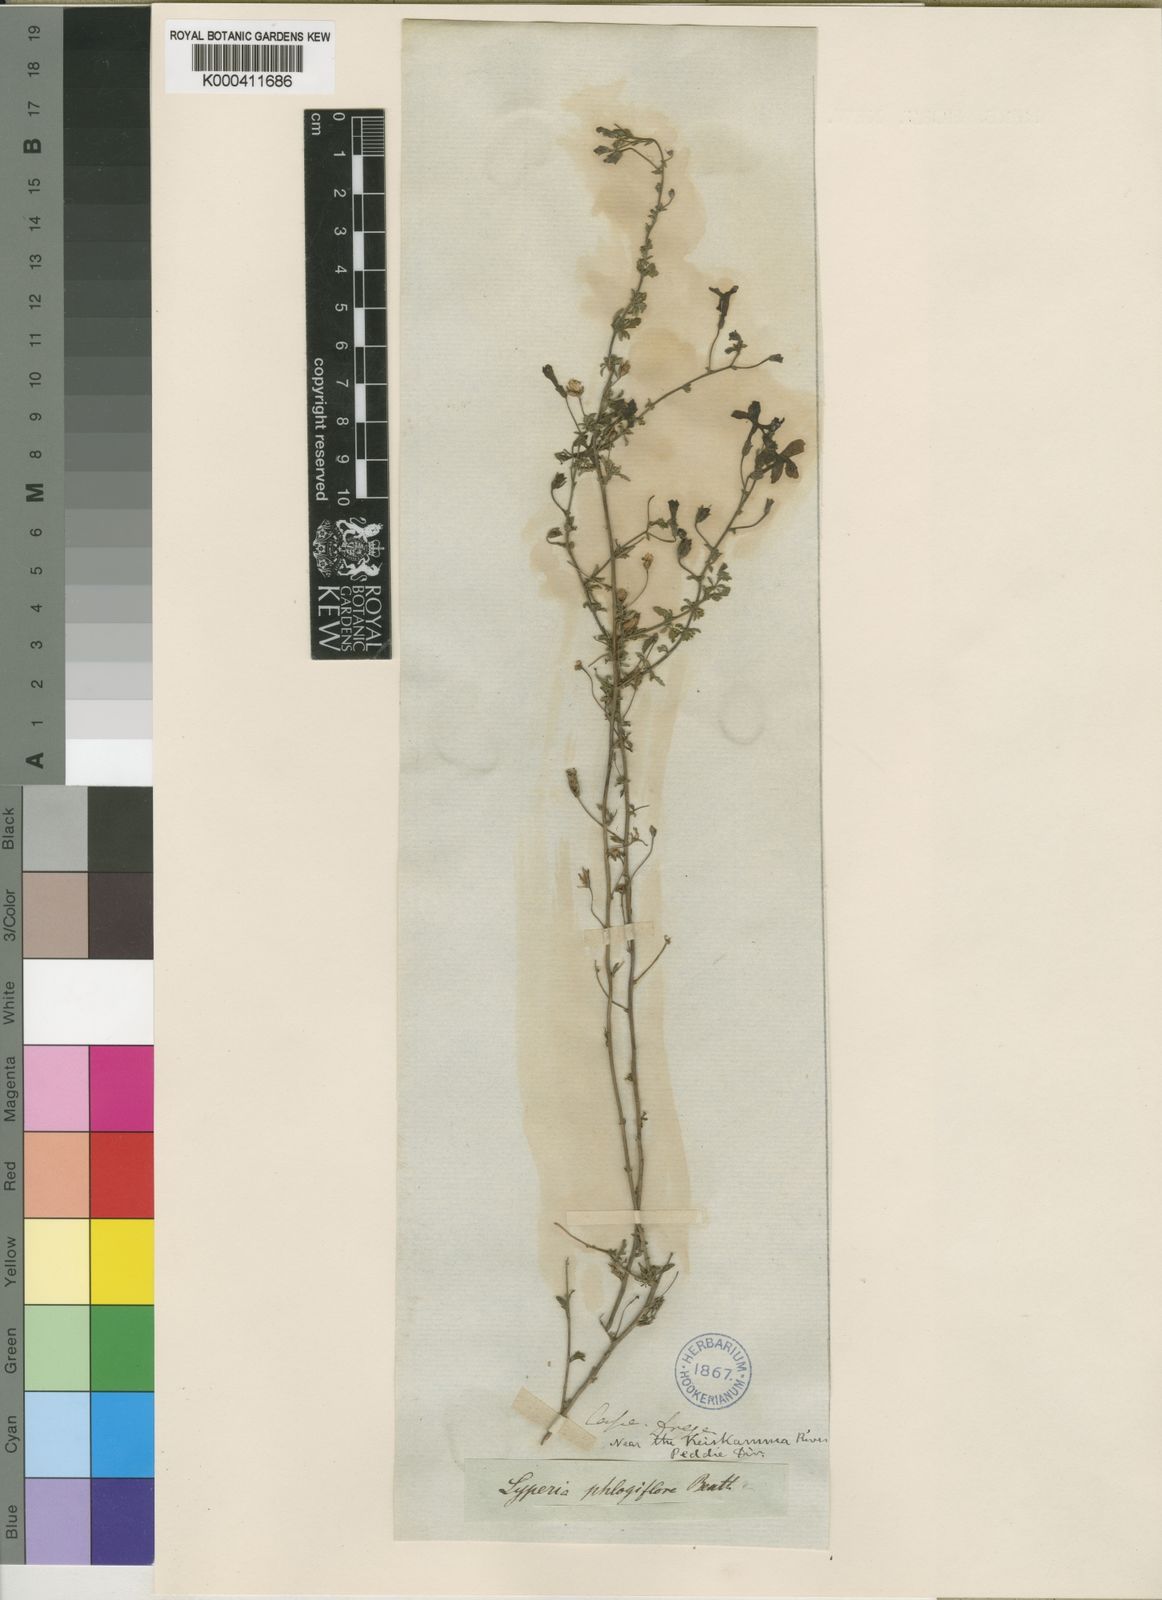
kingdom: Plantae
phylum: Tracheophyta
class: Magnoliopsida
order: Lamiales
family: Scrophulariaceae
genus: Jamesbrittenia
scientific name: Jamesbrittenia phlogiflora
